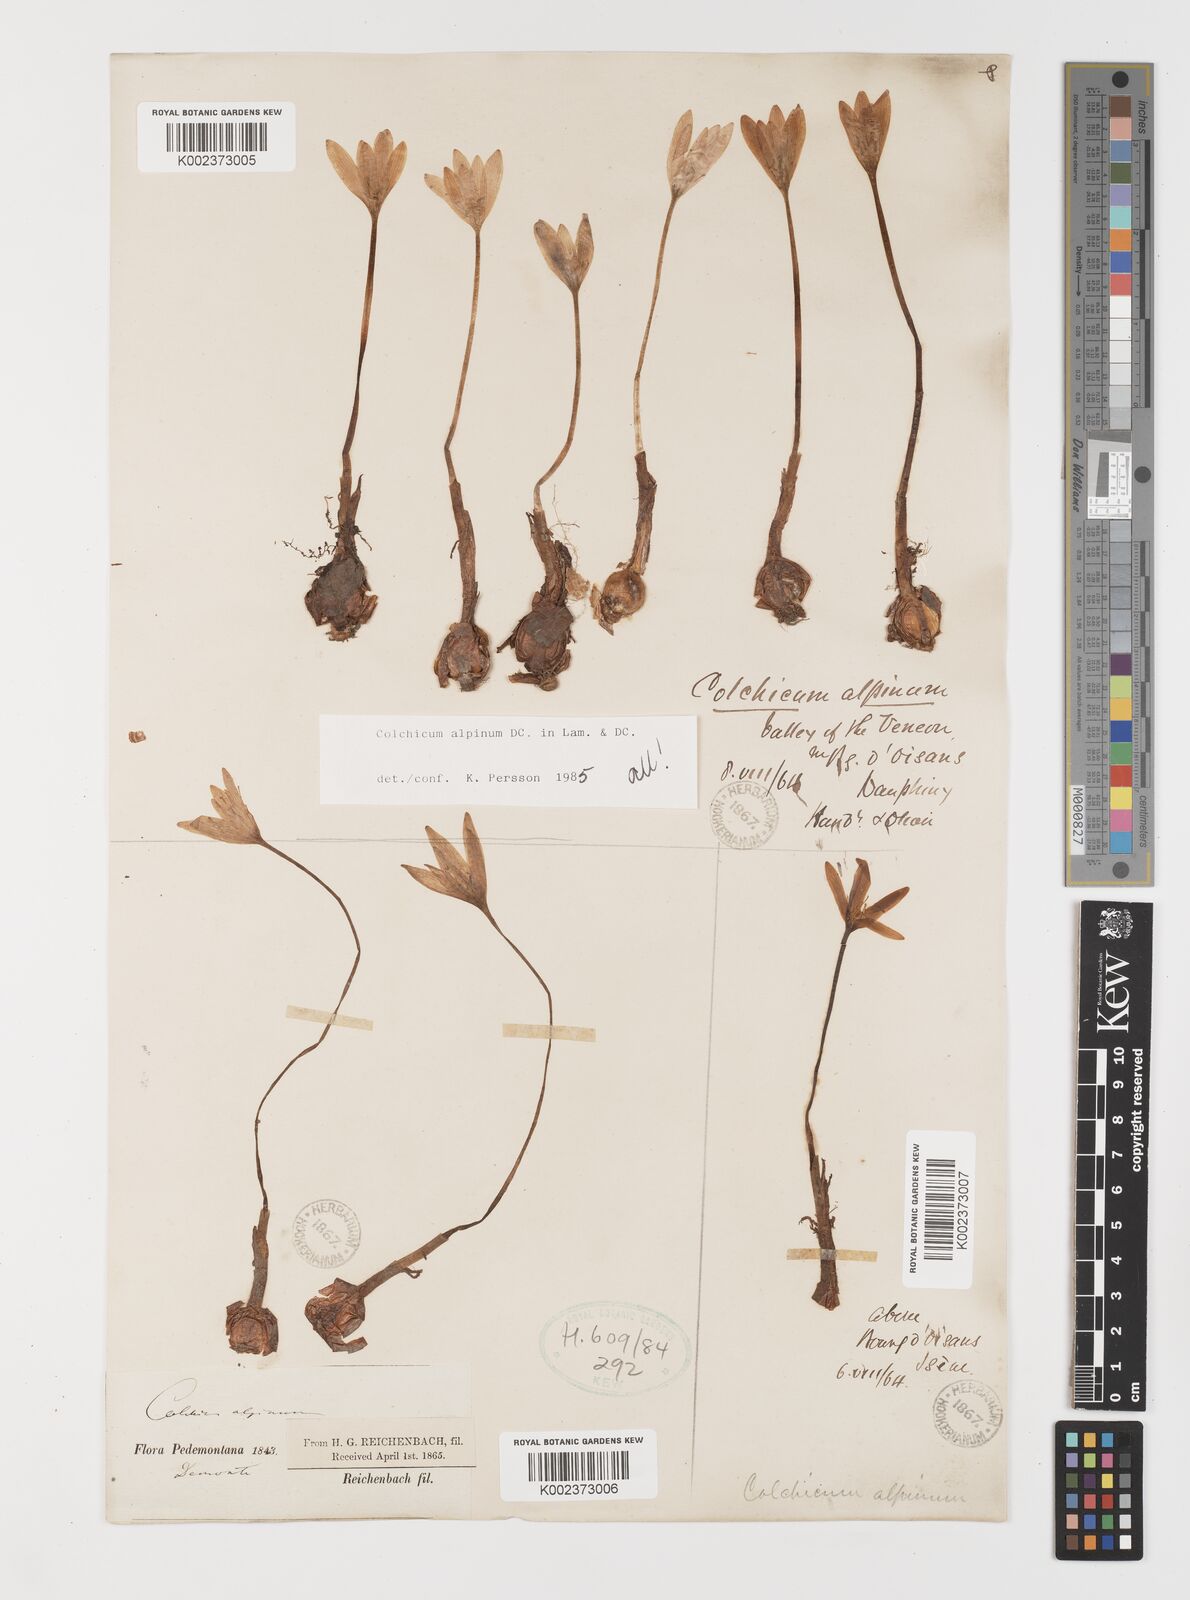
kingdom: Plantae
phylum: Tracheophyta
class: Liliopsida
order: Liliales
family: Colchicaceae
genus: Colchicum
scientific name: Colchicum alpinum
